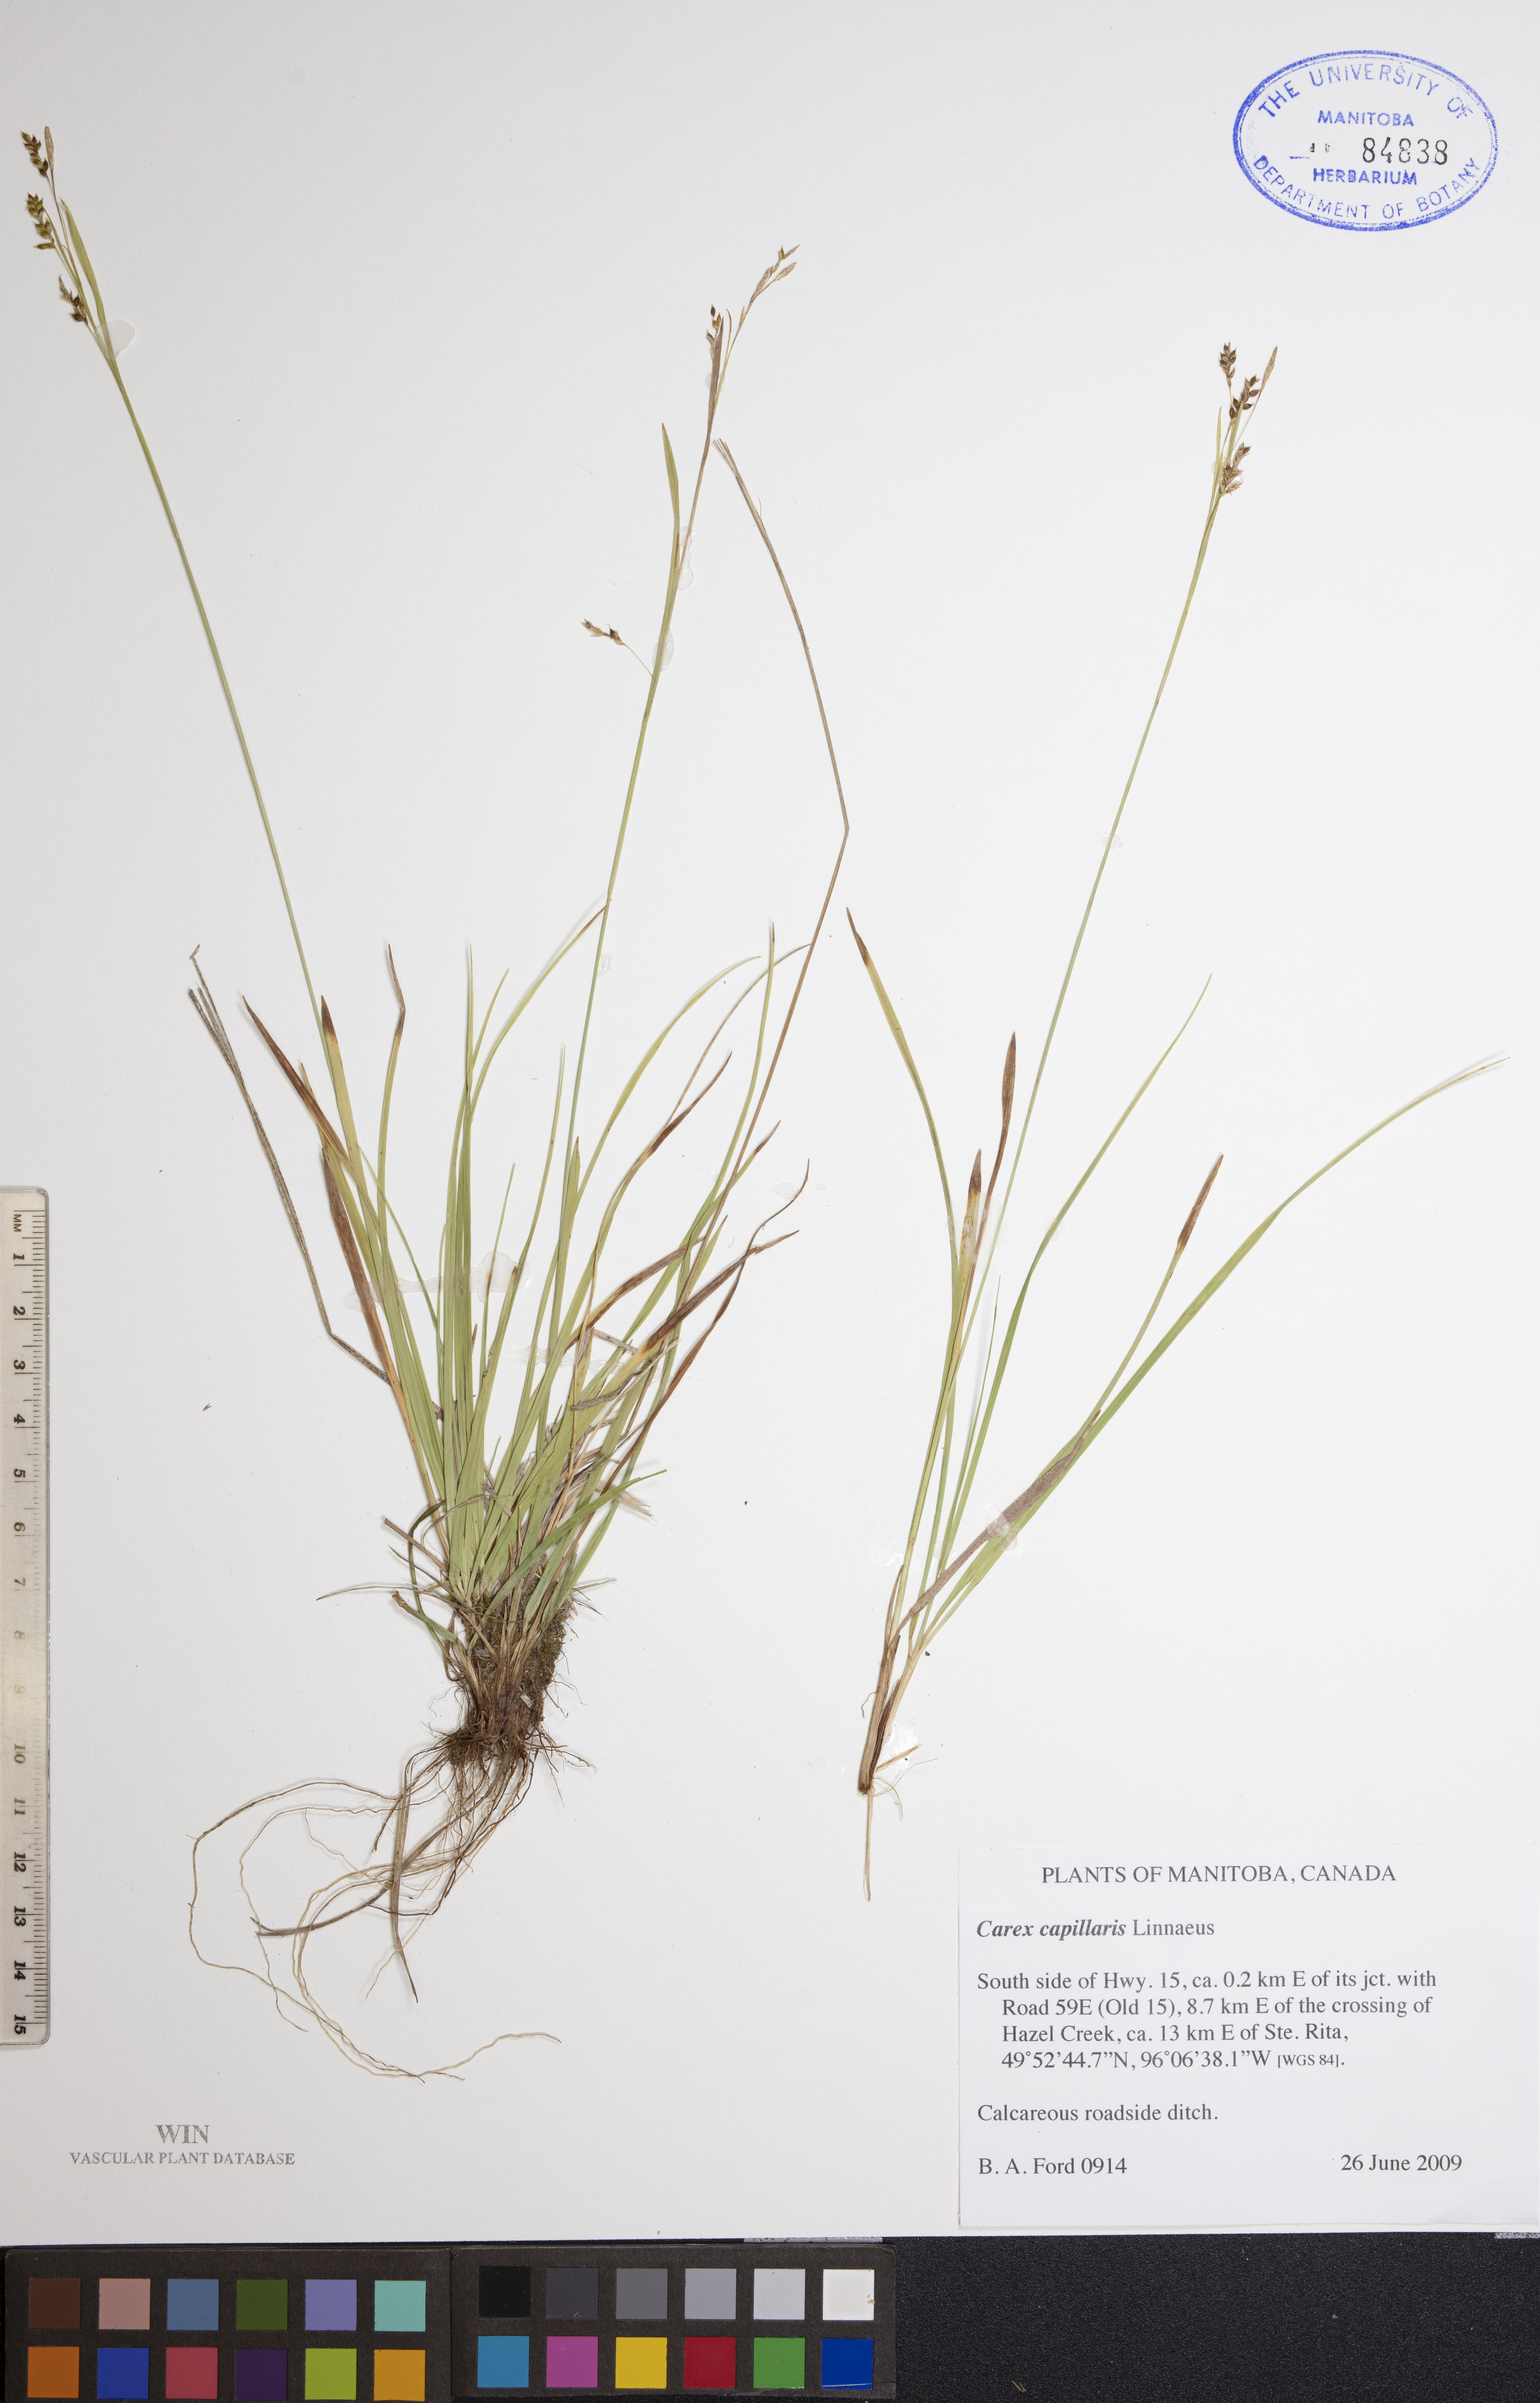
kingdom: Plantae
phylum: Tracheophyta
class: Liliopsida
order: Poales
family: Cyperaceae
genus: Carex
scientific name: Carex capillaris
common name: Hair sedge
